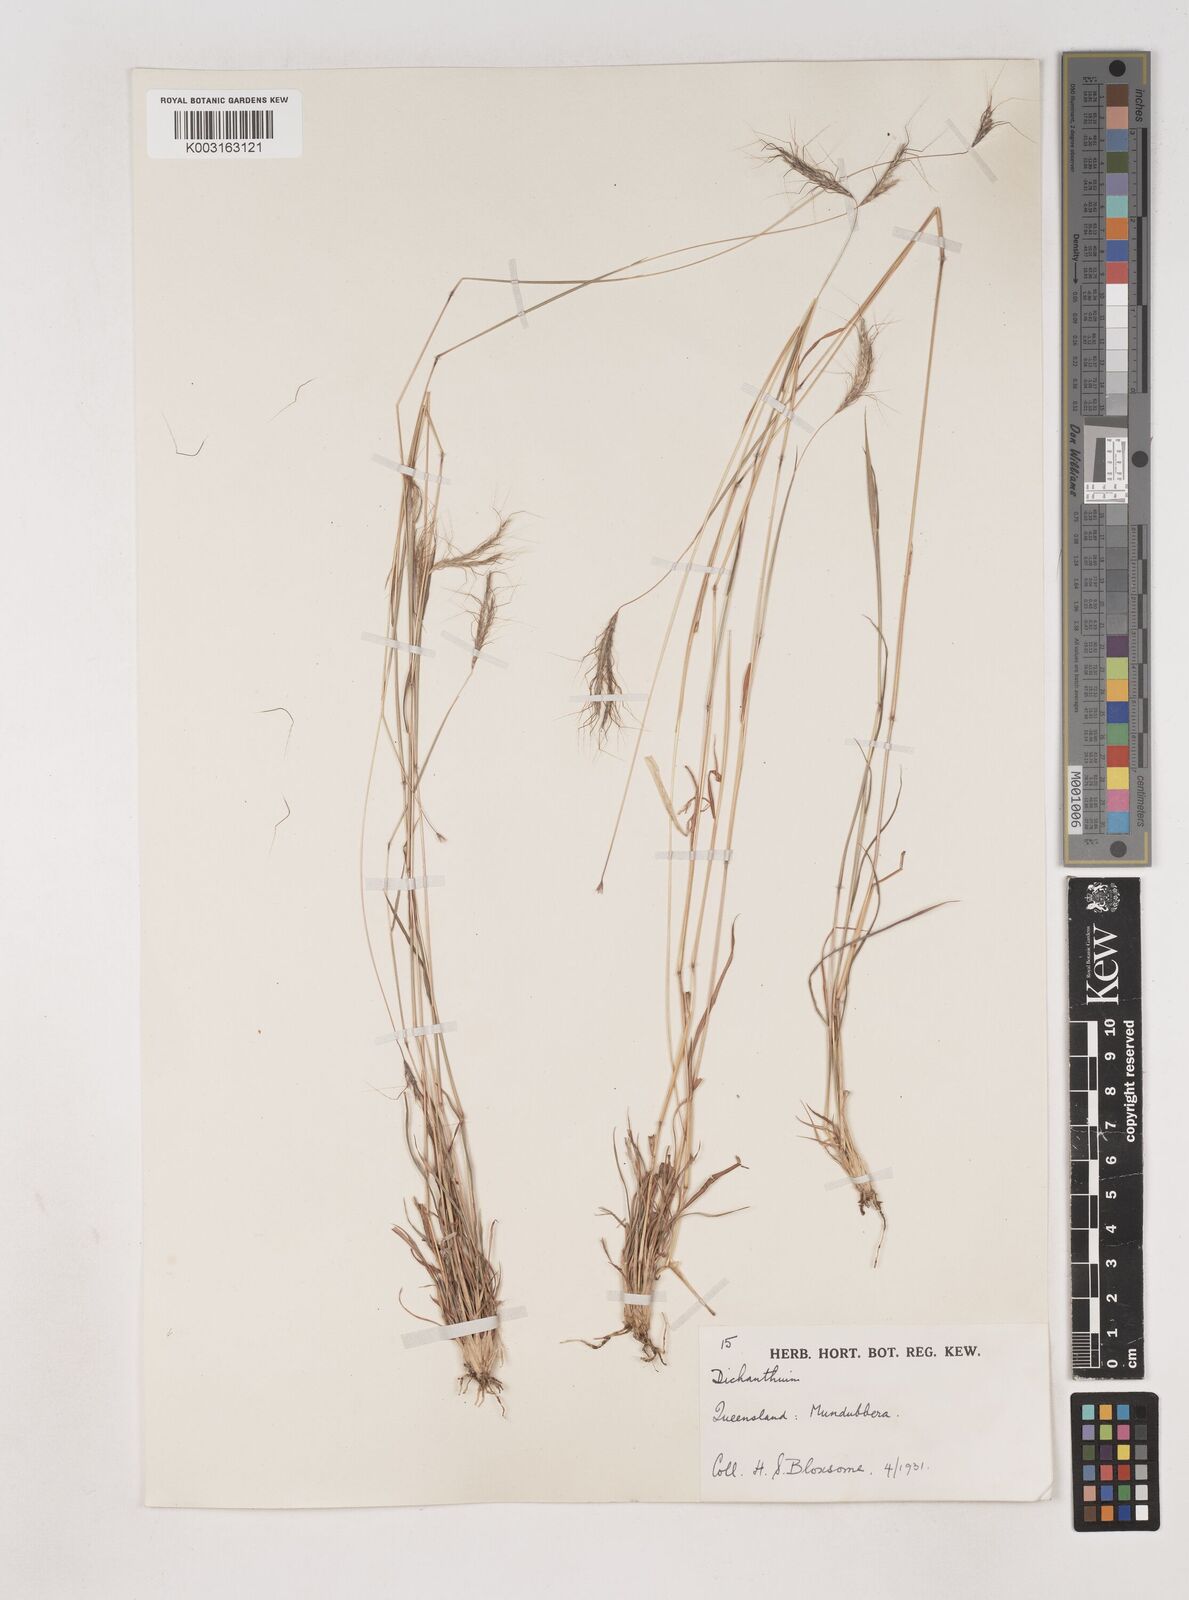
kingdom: Plantae
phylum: Tracheophyta
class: Liliopsida
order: Poales
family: Poaceae
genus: Dichanthium
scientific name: Dichanthium sericeum
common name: Silky bluestem
